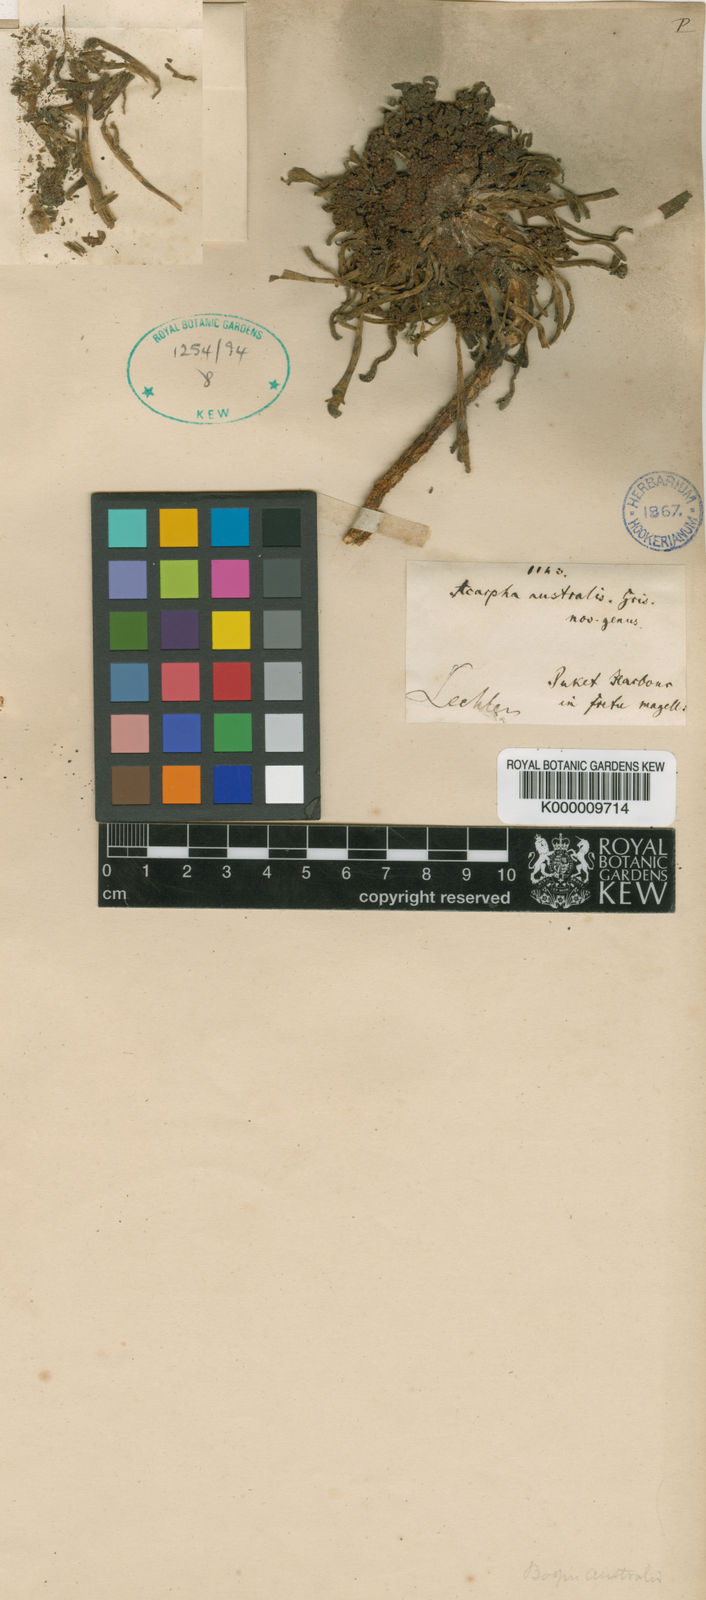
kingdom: Plantae
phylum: Tracheophyta
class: Magnoliopsida
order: Asterales
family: Calyceraceae
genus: Gamocarpha
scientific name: Gamocarpha australis
